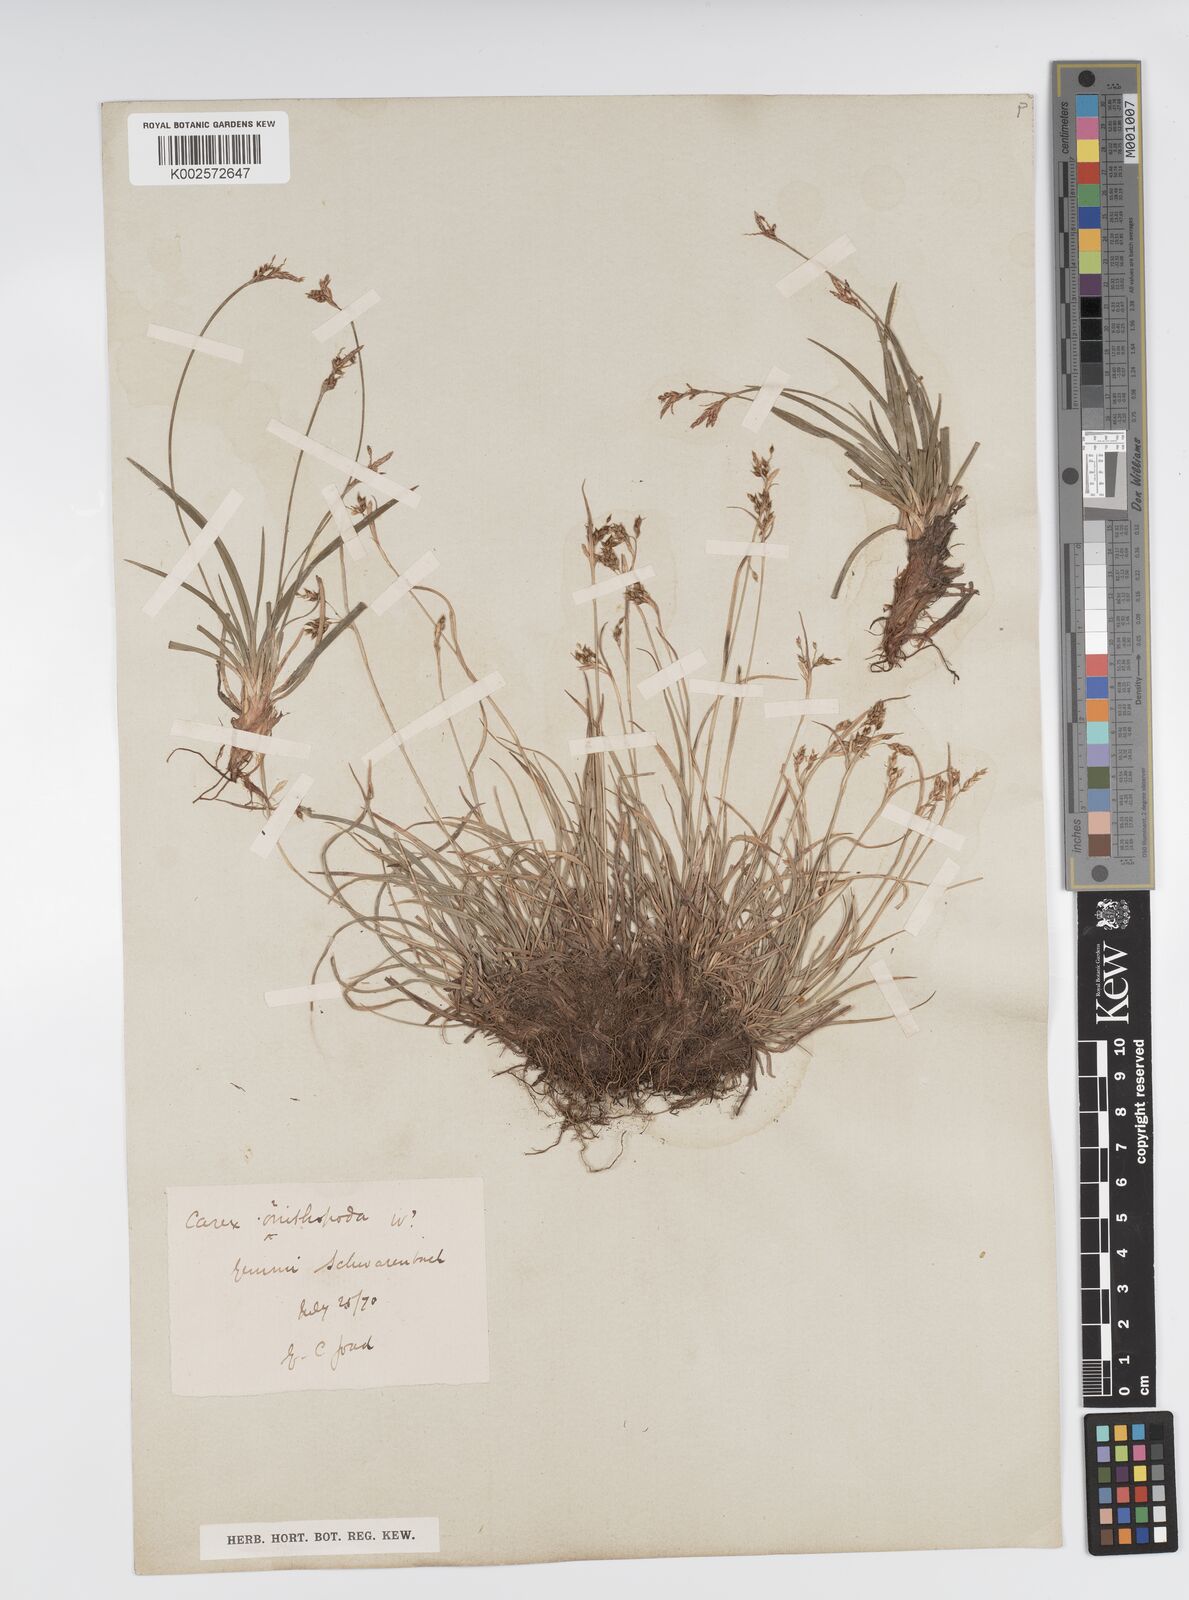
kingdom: Plantae
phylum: Tracheophyta
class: Liliopsida
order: Poales
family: Cyperaceae
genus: Carex
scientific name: Carex ornithopoda
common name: Bird's-foot sedge
